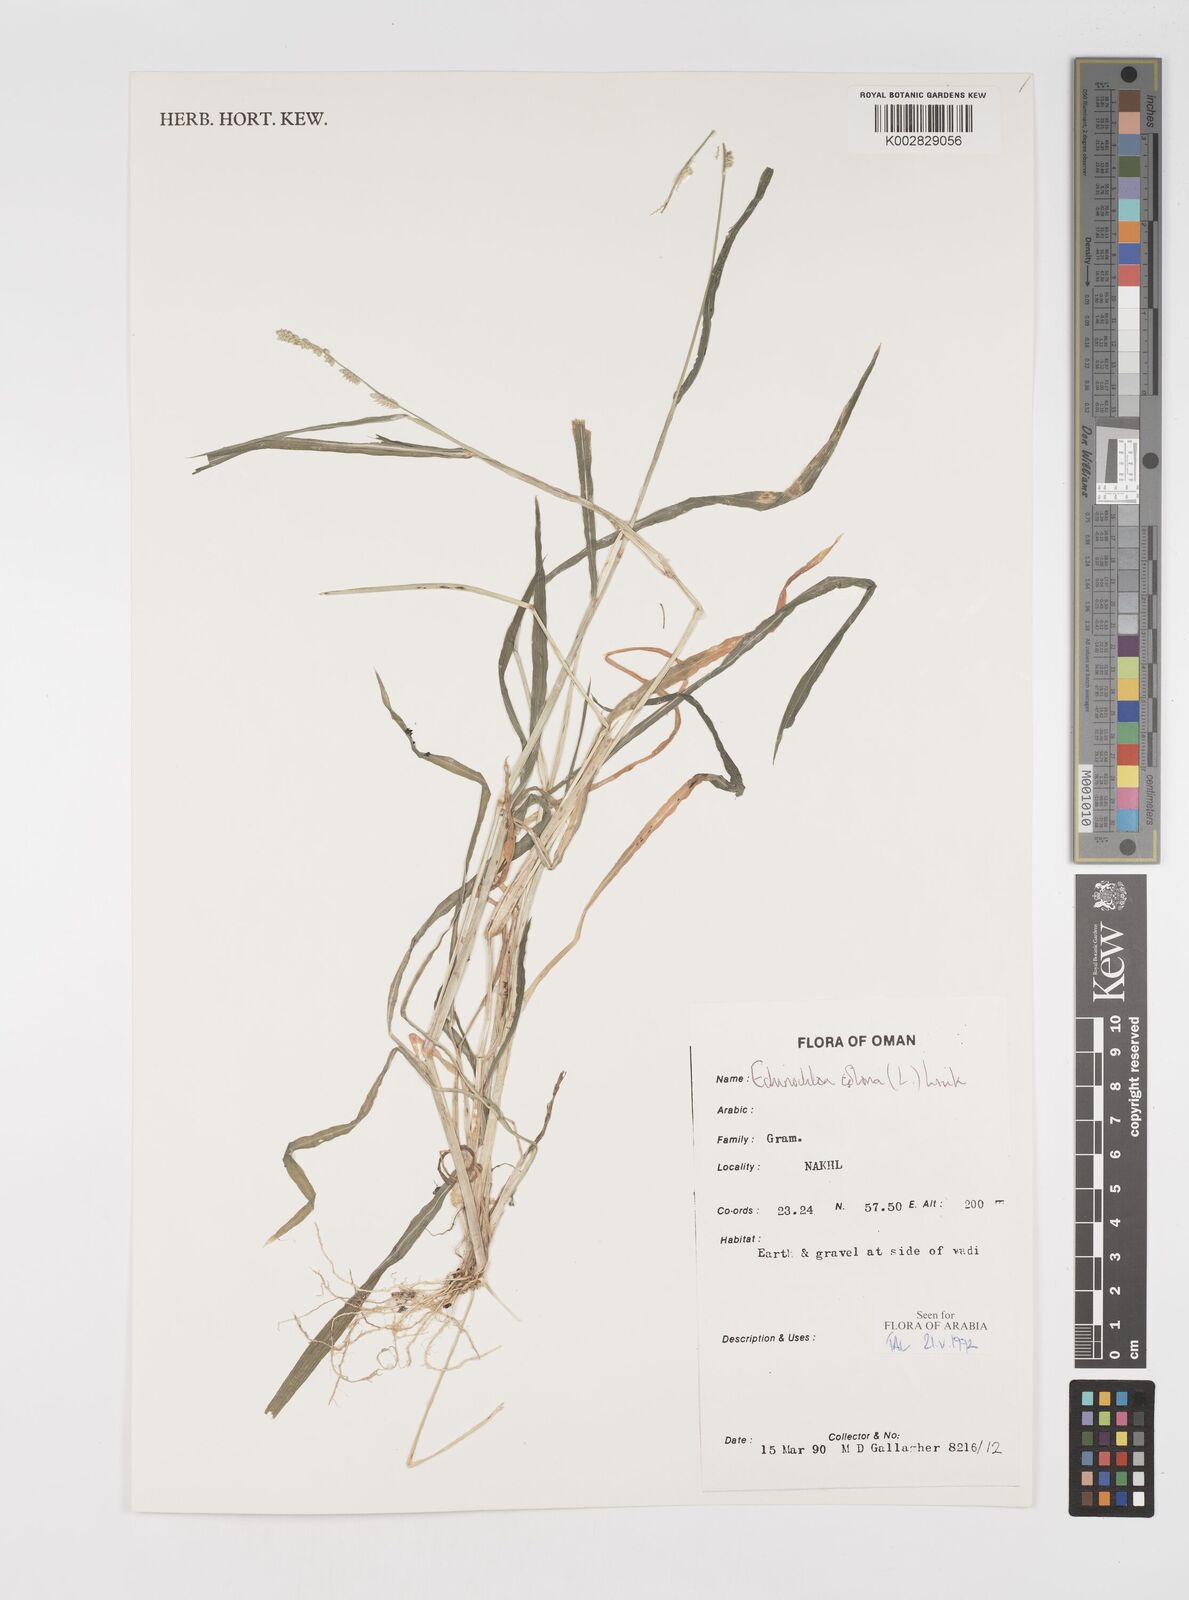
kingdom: Plantae
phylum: Tracheophyta
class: Liliopsida
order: Poales
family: Poaceae
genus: Echinochloa
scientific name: Echinochloa colonum
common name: Jungle rice
